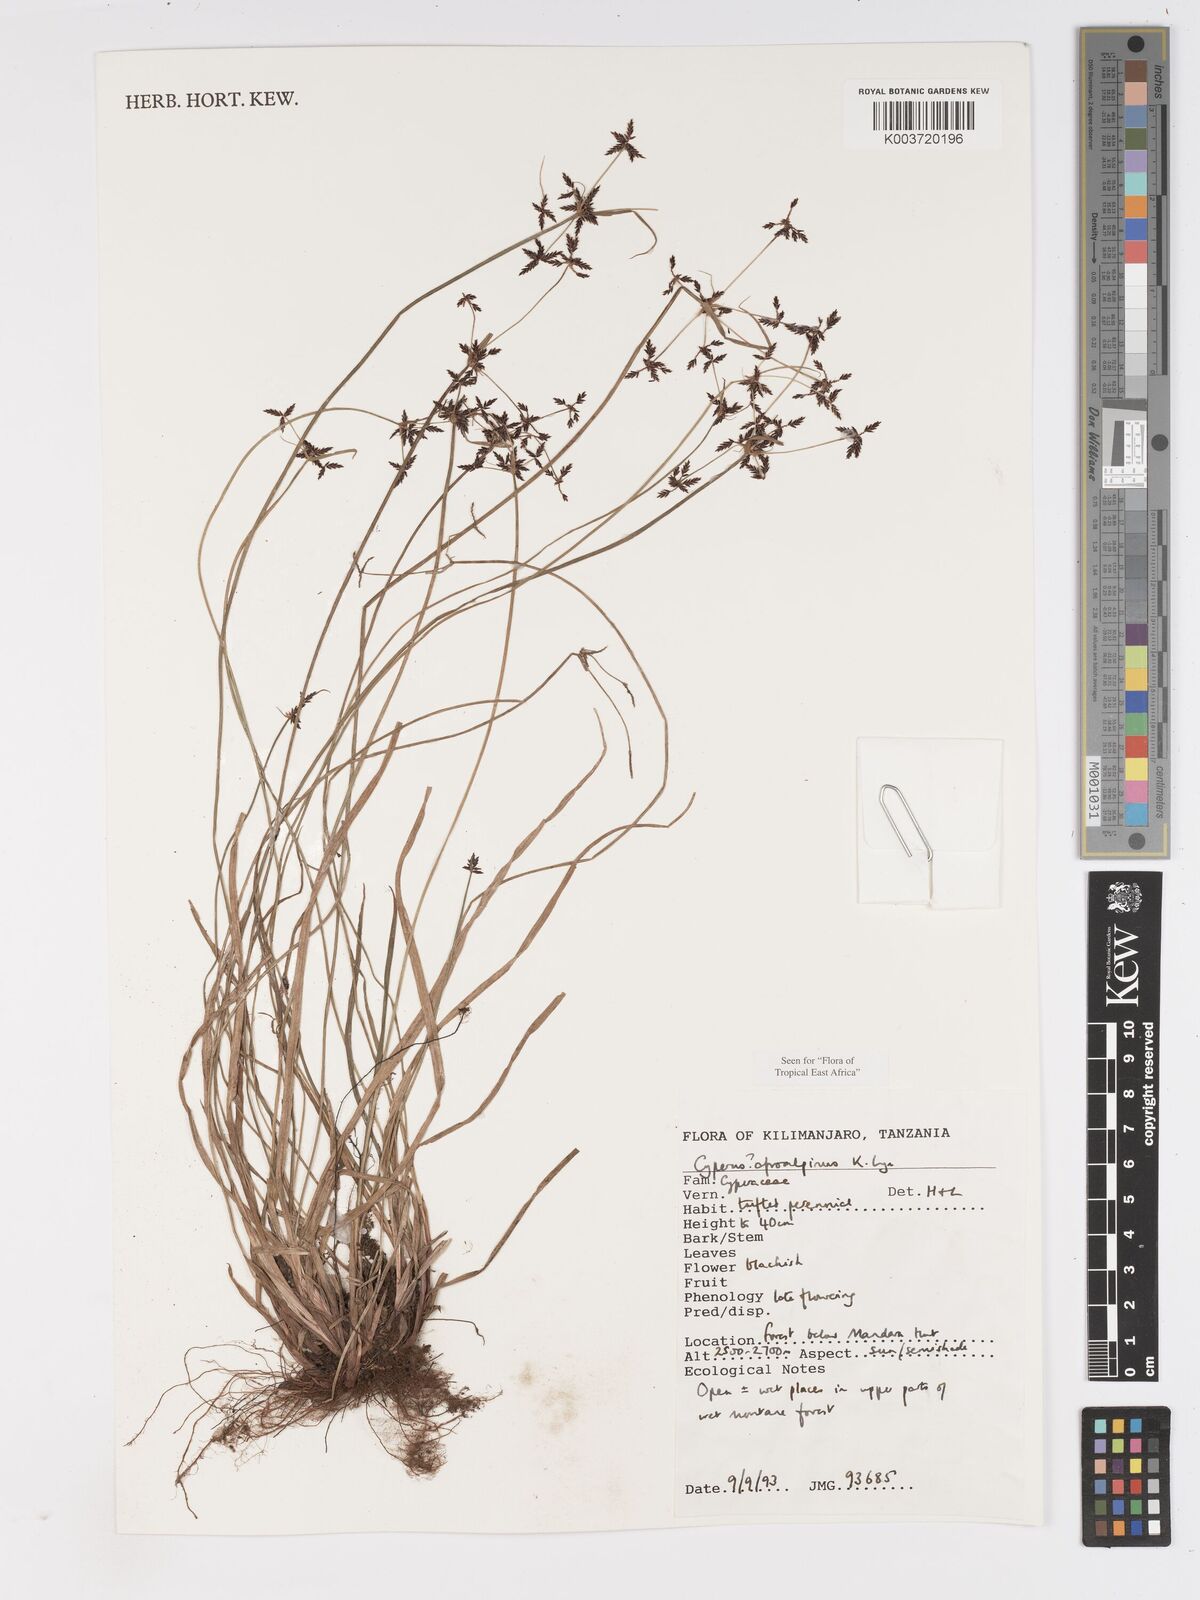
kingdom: Plantae
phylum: Tracheophyta
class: Liliopsida
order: Poales
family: Cyperaceae
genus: Cyperus
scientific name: Cyperus afroalpinus
